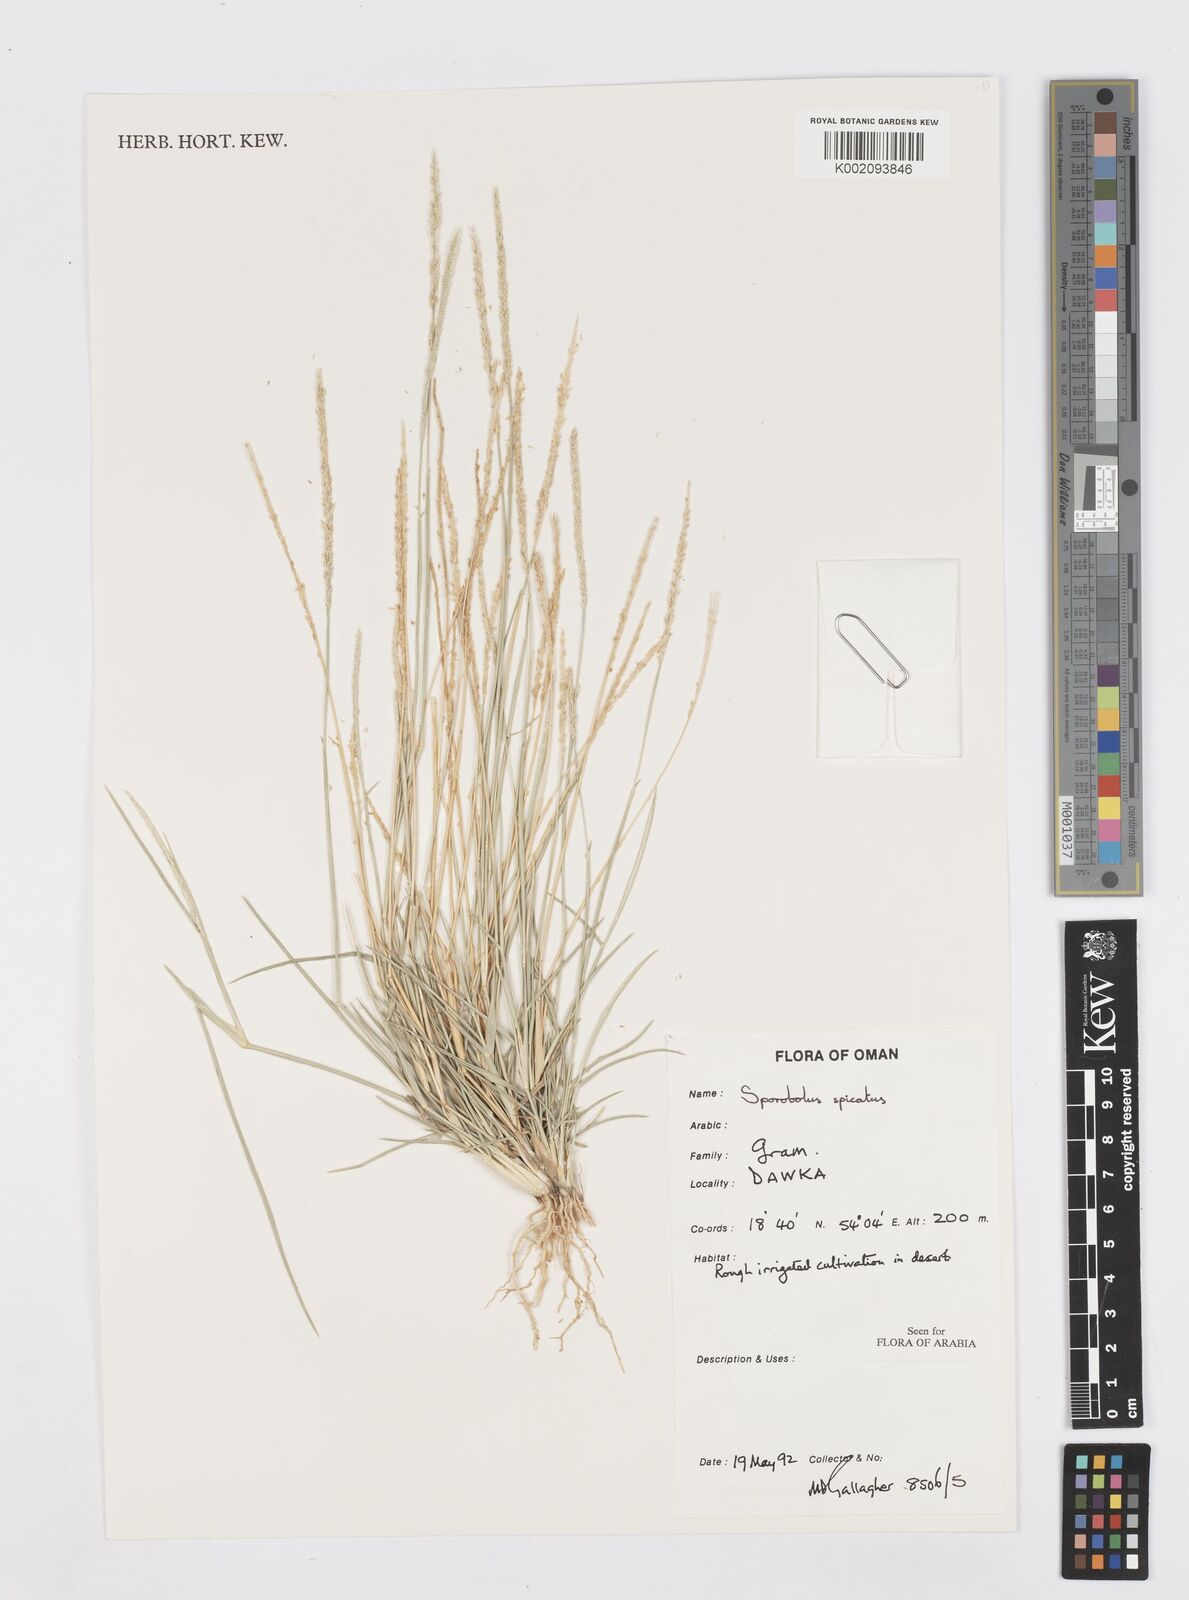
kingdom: Plantae
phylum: Tracheophyta
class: Liliopsida
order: Poales
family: Poaceae
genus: Sporobolus
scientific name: Sporobolus spicatus
